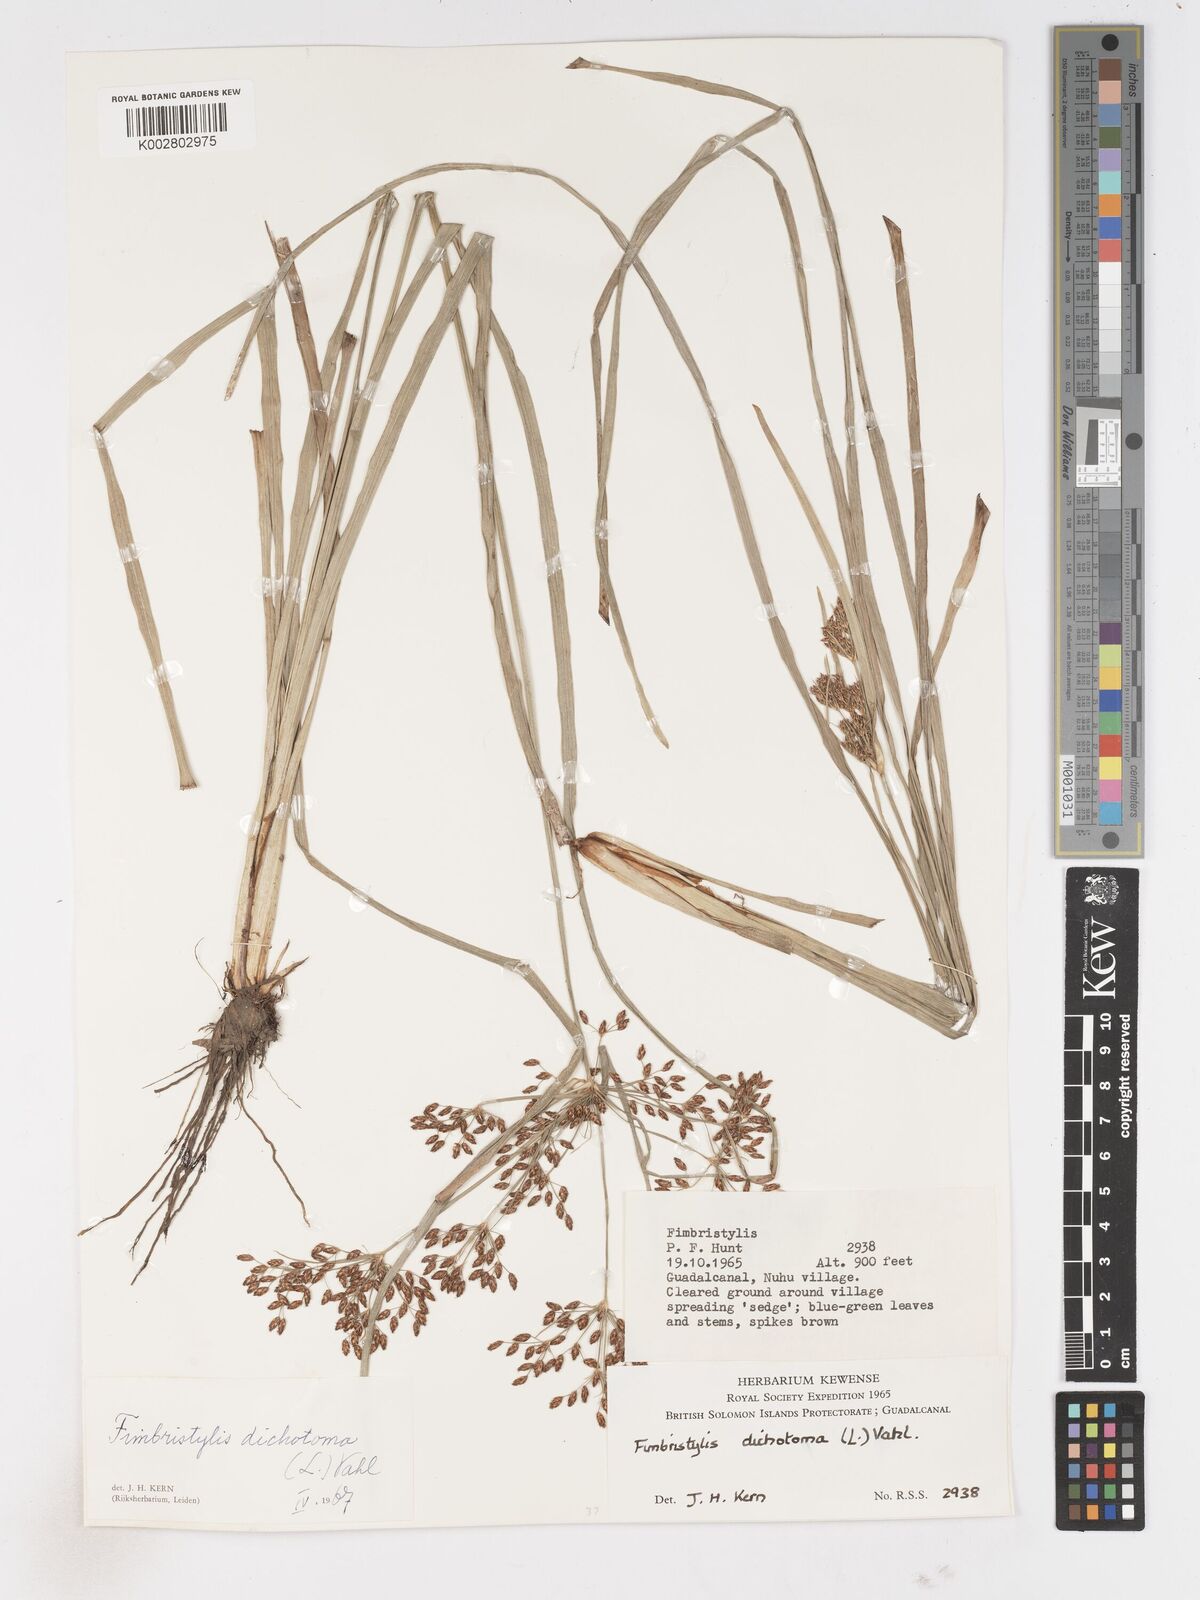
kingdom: Plantae
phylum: Tracheophyta
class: Liliopsida
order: Poales
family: Cyperaceae
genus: Fimbristylis
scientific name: Fimbristylis dichotoma
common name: Forked fimbry
